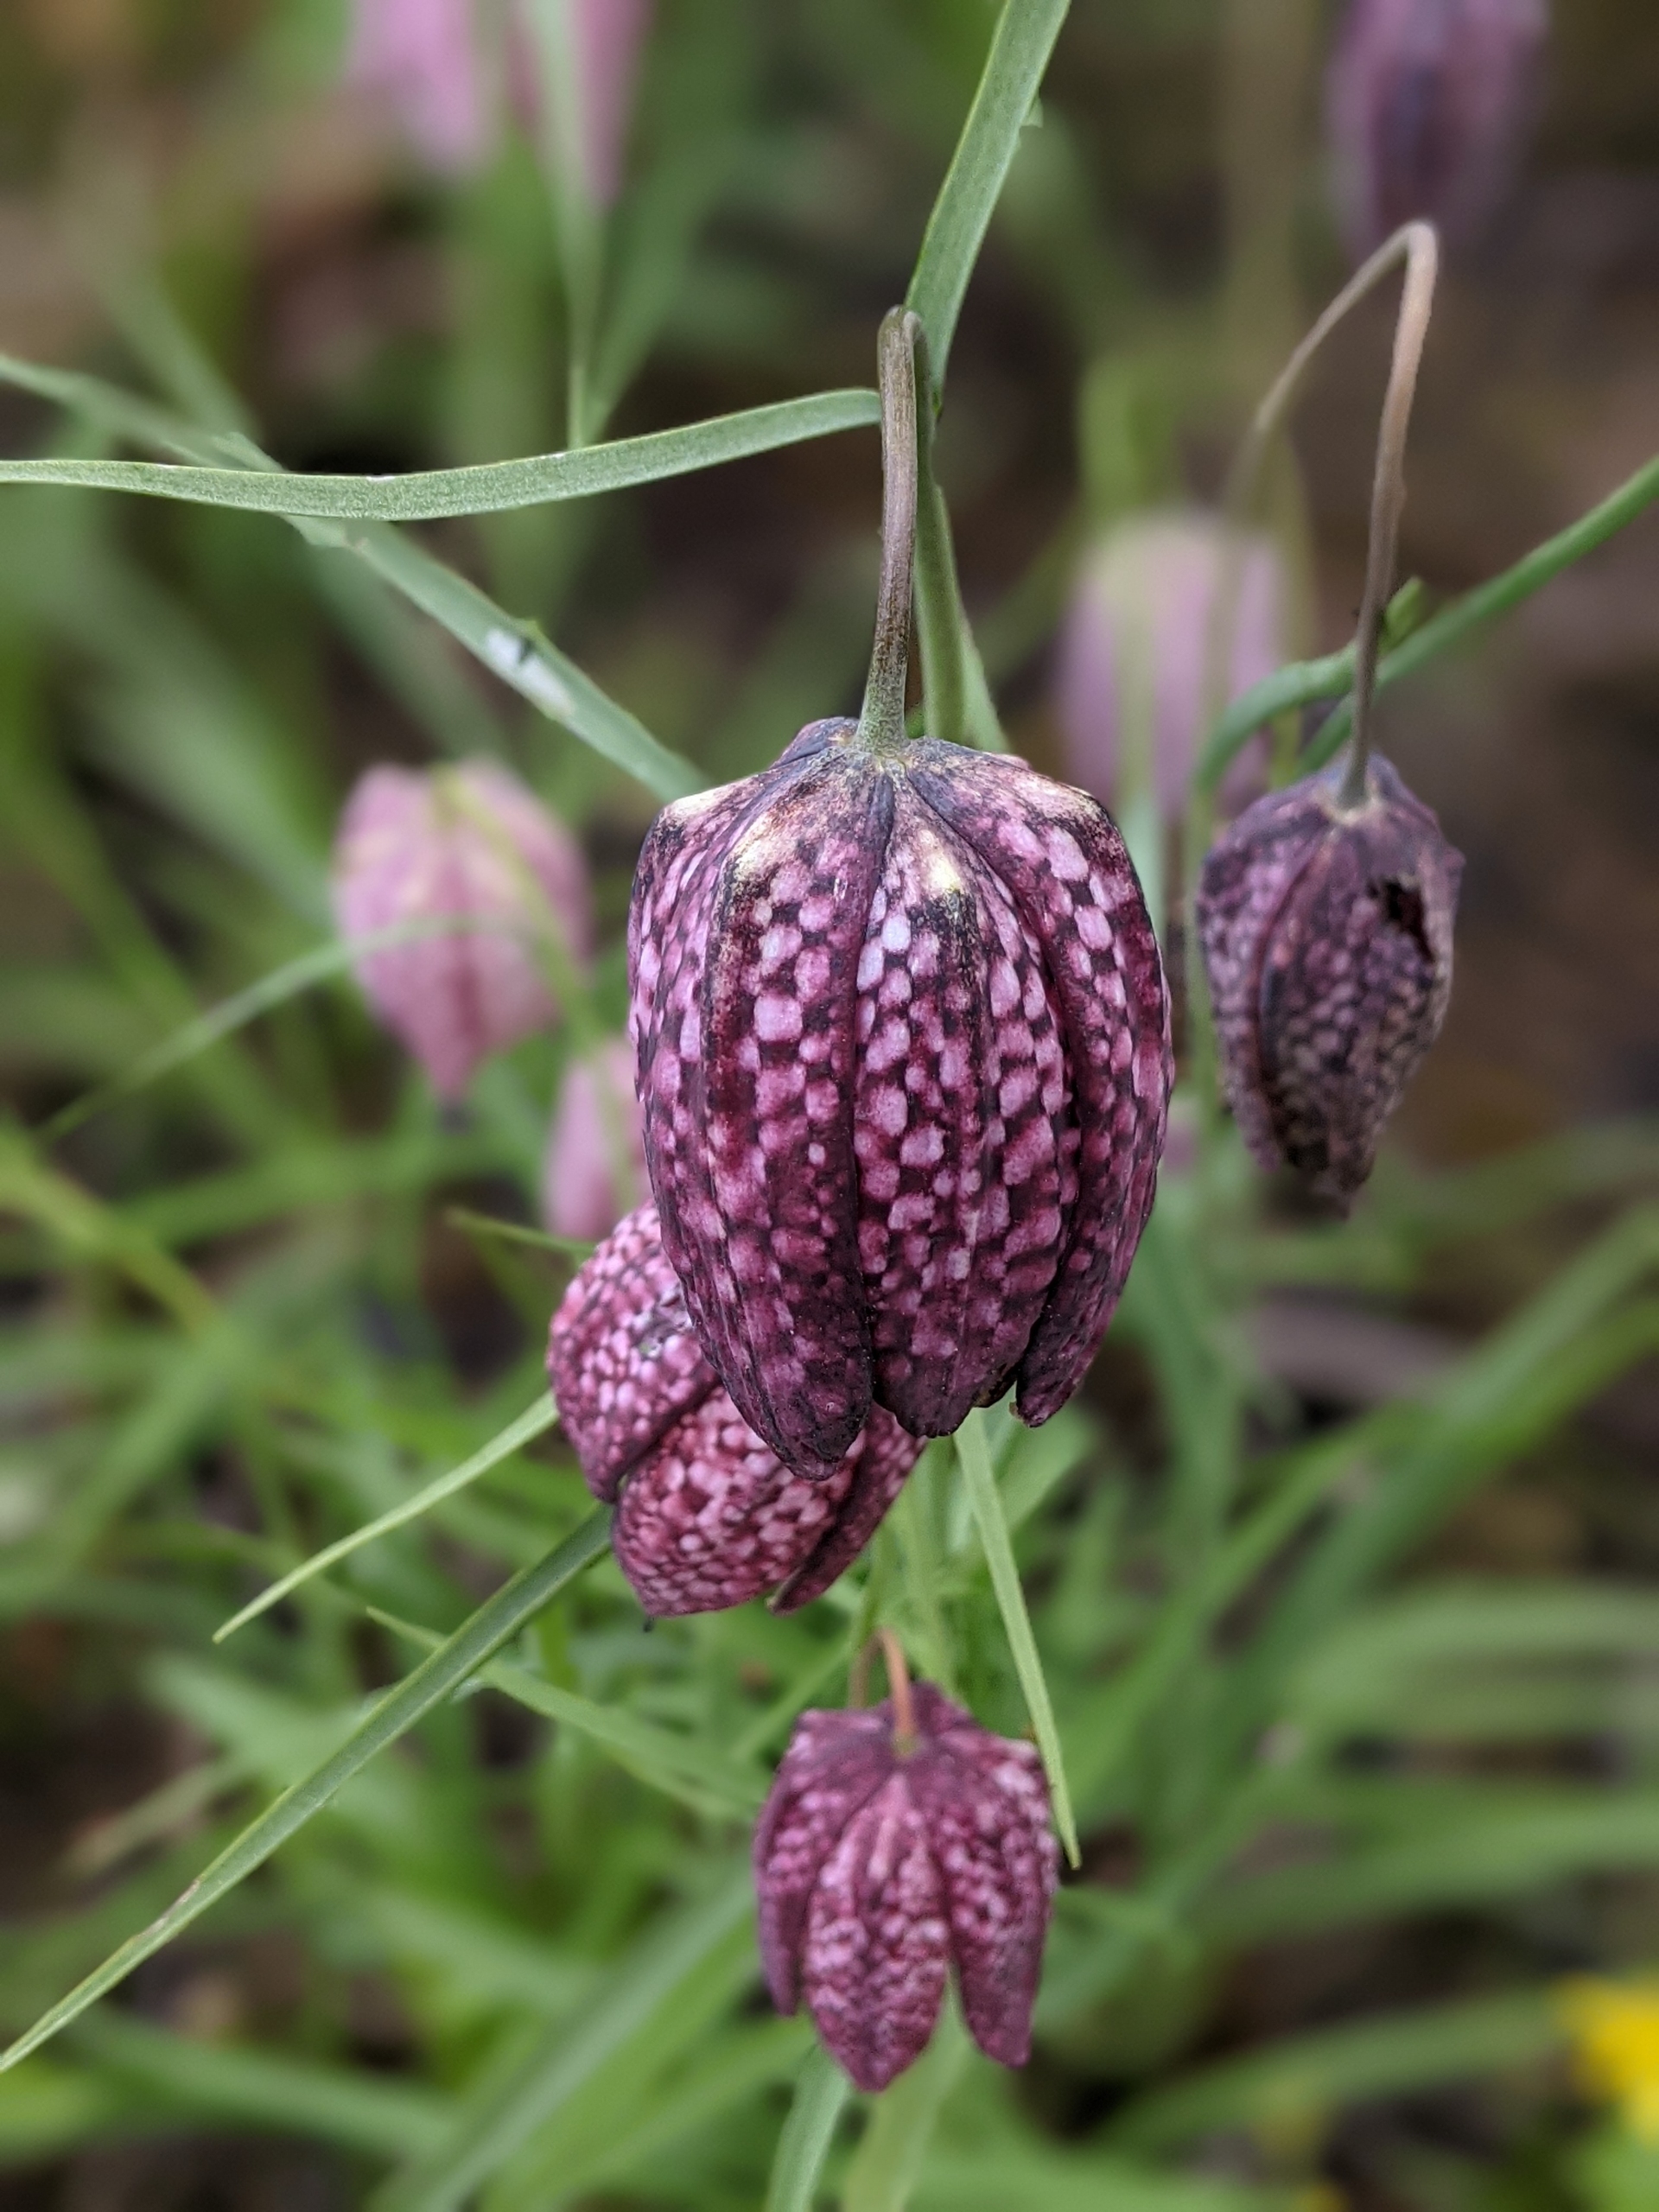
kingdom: Plantae
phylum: Tracheophyta
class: Liliopsida
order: Liliales
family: Liliaceae
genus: Fritillaria
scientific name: Fritillaria meleagris
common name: Vibeæg
